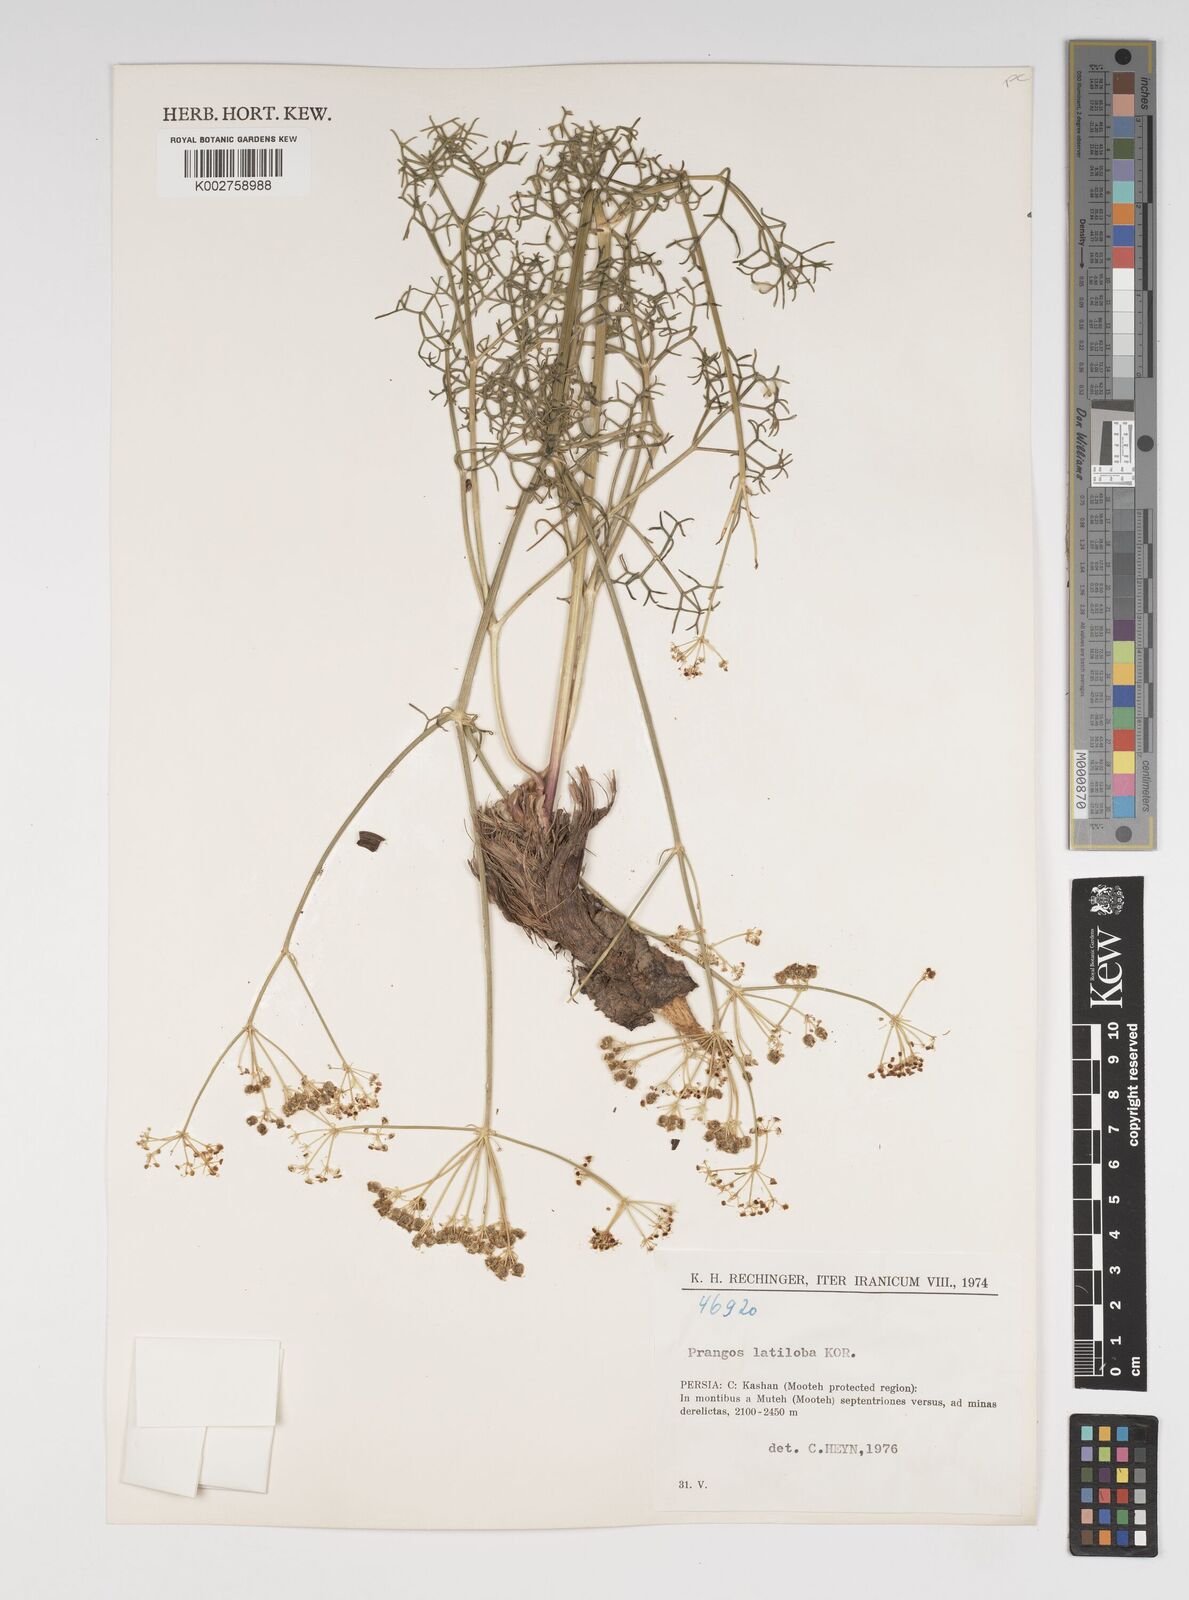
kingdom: Plantae
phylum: Tracheophyta
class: Magnoliopsida
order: Apiales
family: Apiaceae
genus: Prangos
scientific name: Prangos latiloba
